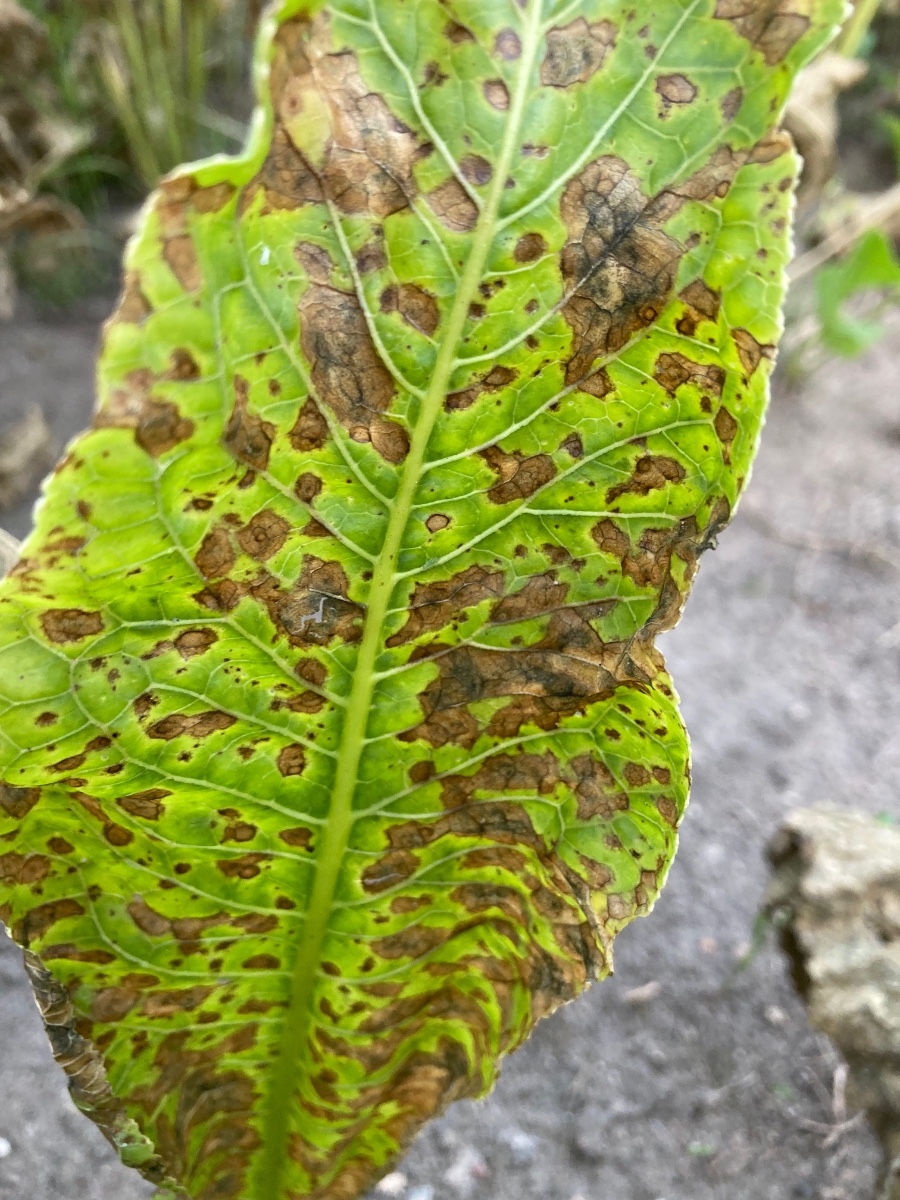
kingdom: Fungi
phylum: Ascomycota
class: Dothideomycetes
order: Mycosphaerellales
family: Mycosphaerellaceae
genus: Cercospora
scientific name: Cercospora armoraciae
